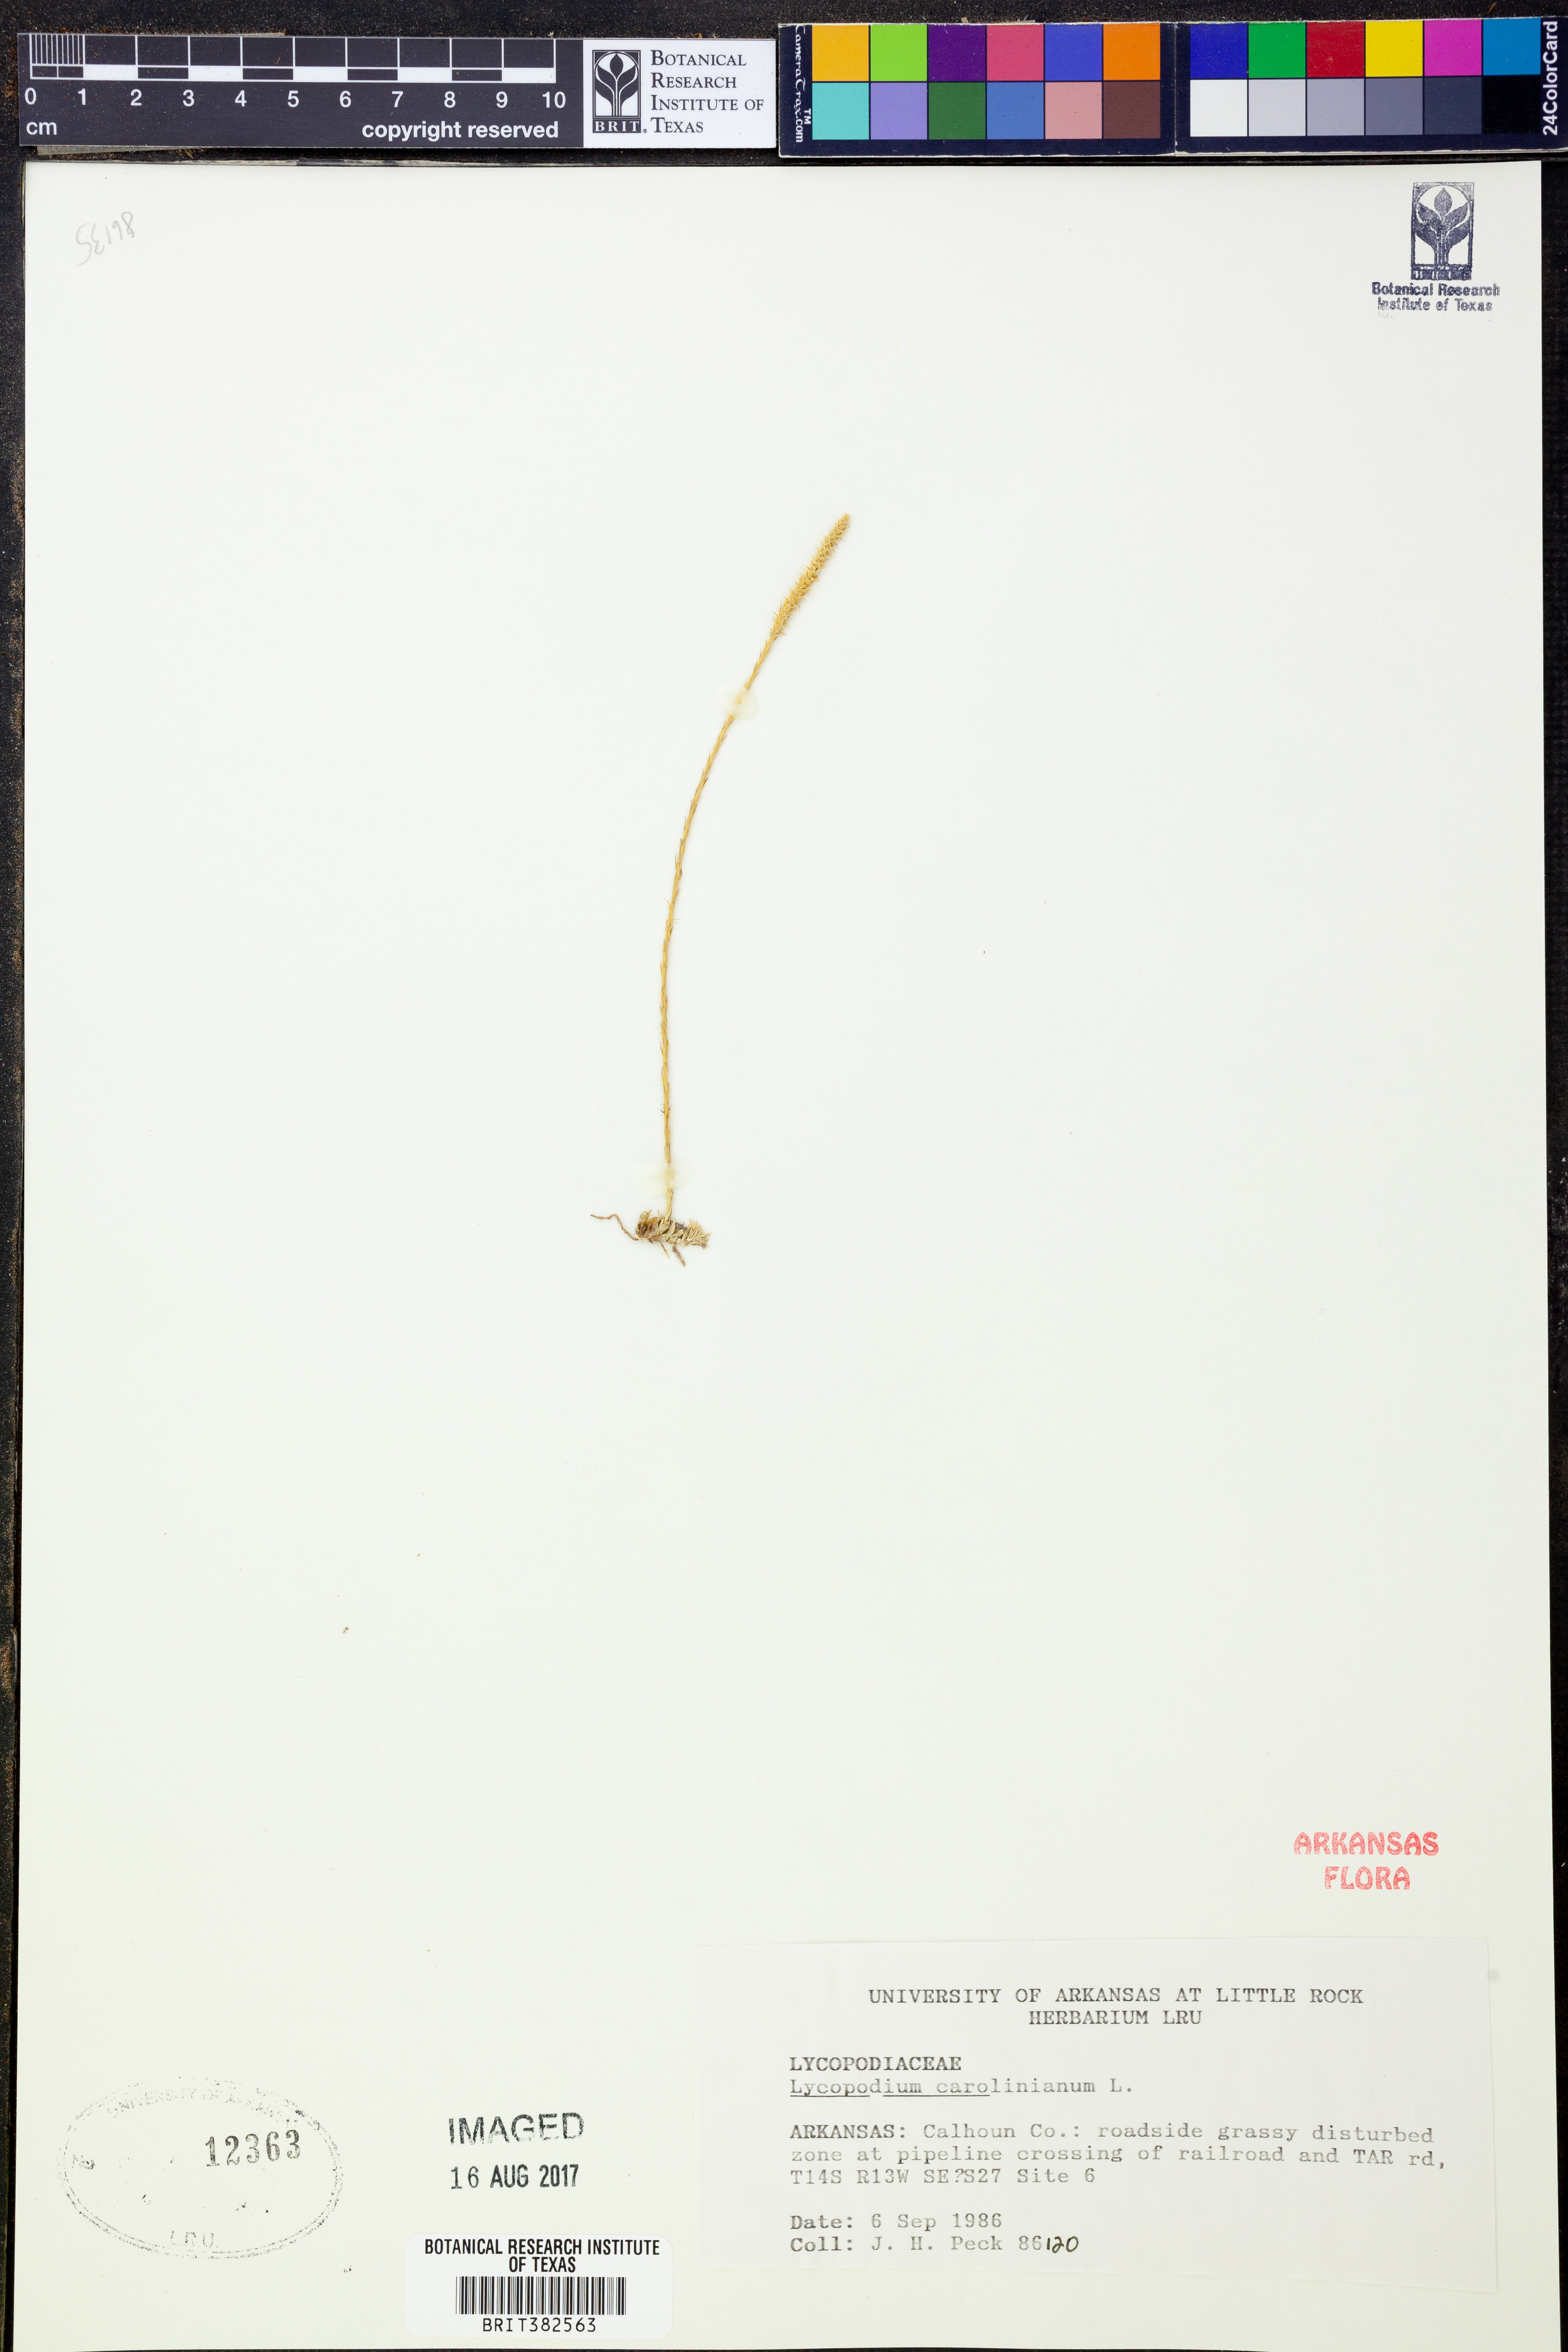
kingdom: Plantae
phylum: Tracheophyta
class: Lycopodiopsida
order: Lycopodiales
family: Lycopodiaceae
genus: Pseudolycopodiella
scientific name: Pseudolycopodiella caroliniana
